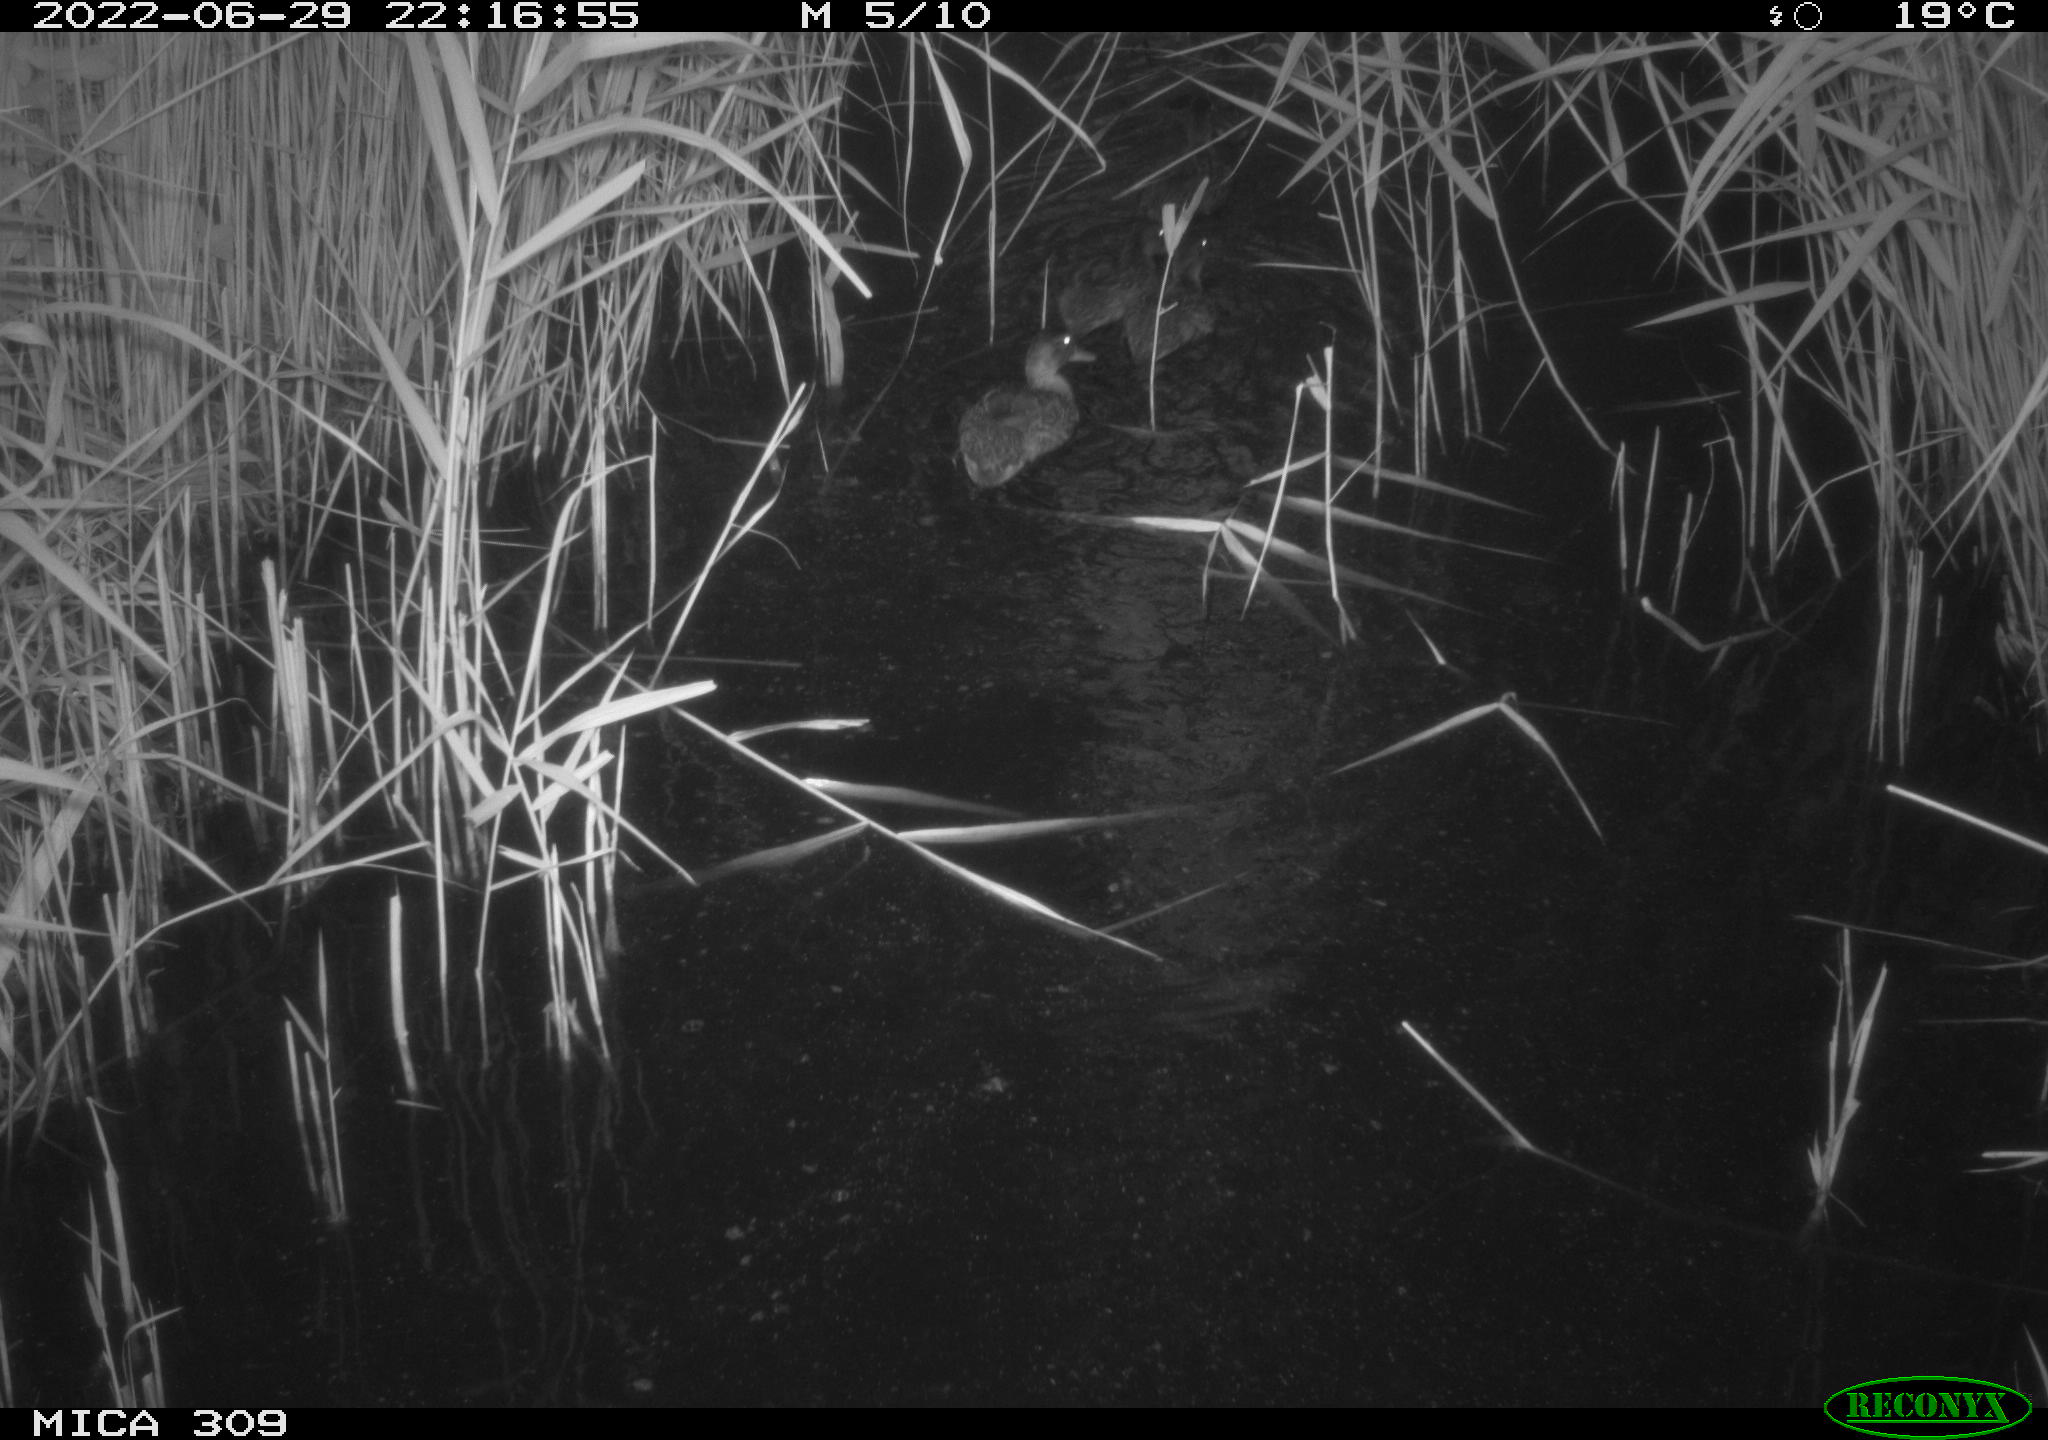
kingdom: Animalia
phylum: Chordata
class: Aves
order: Anseriformes
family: Anatidae
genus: Anas
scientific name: Anas platyrhynchos
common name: Mallard
